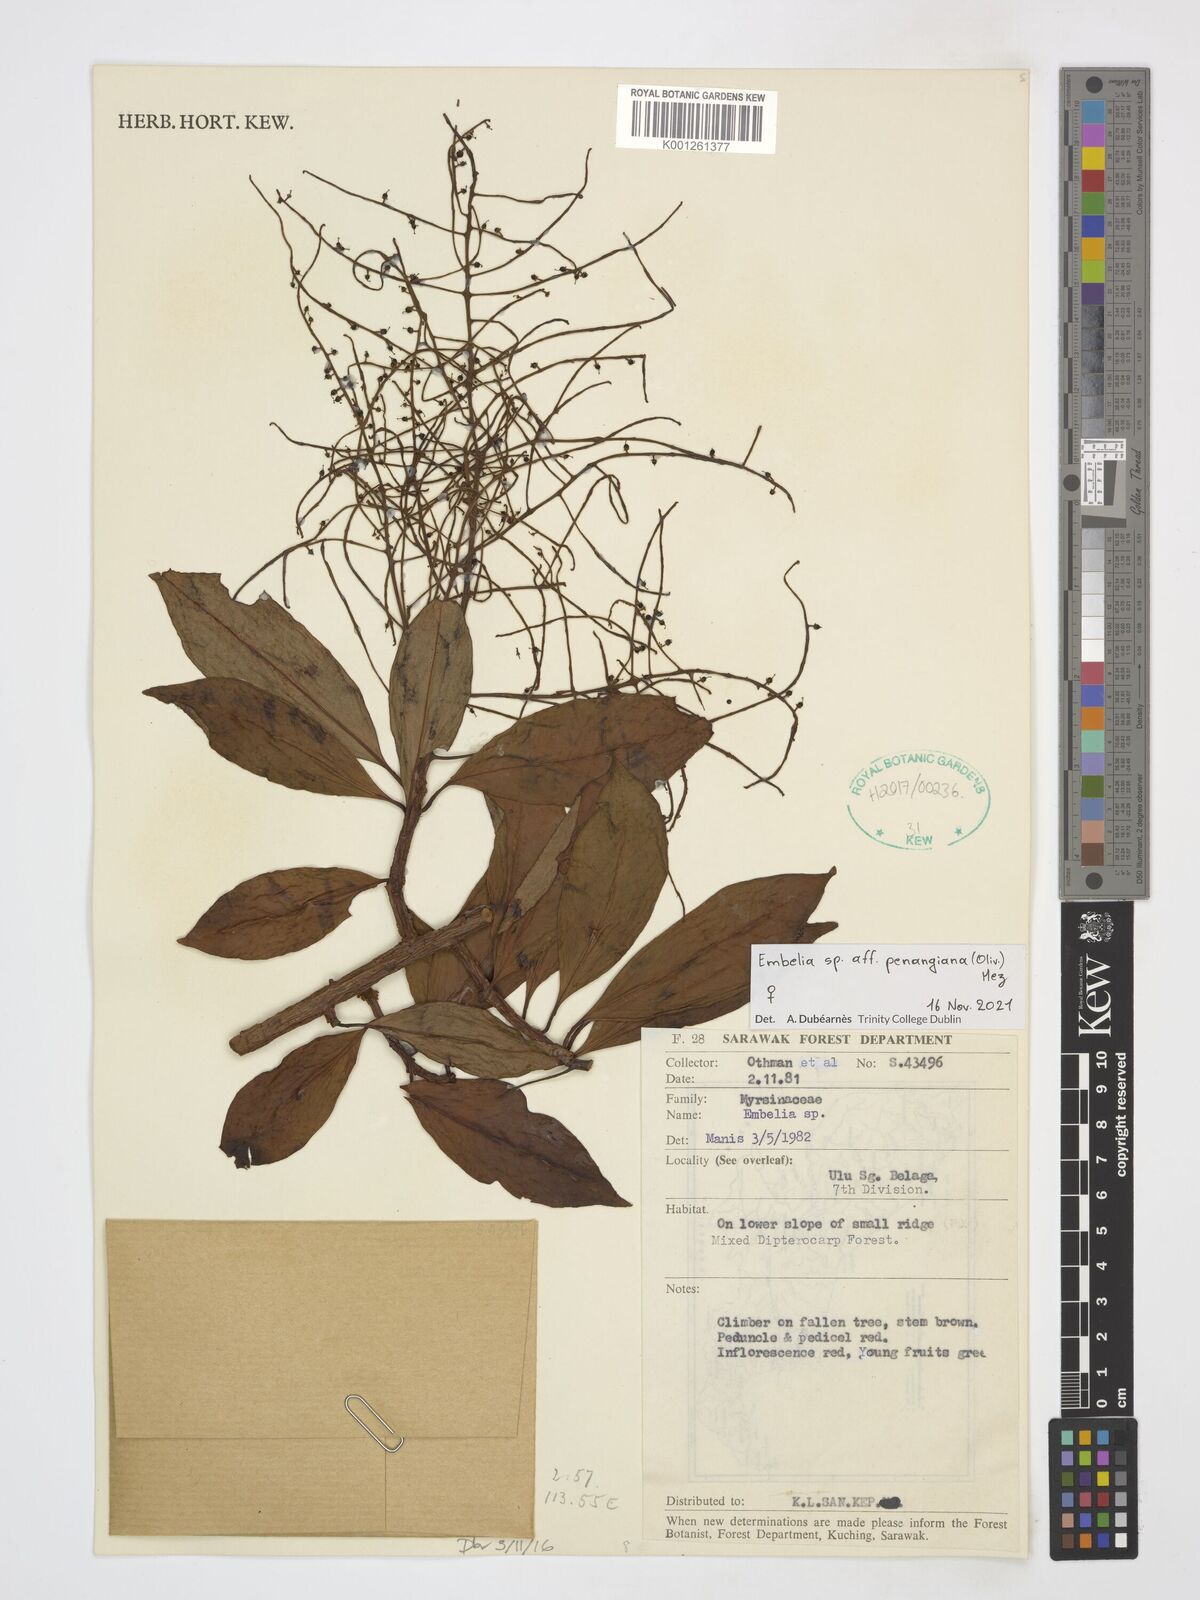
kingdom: Plantae
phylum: Tracheophyta
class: Magnoliopsida
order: Ericales
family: Primulaceae
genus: Embelia
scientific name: Embelia penangiana
